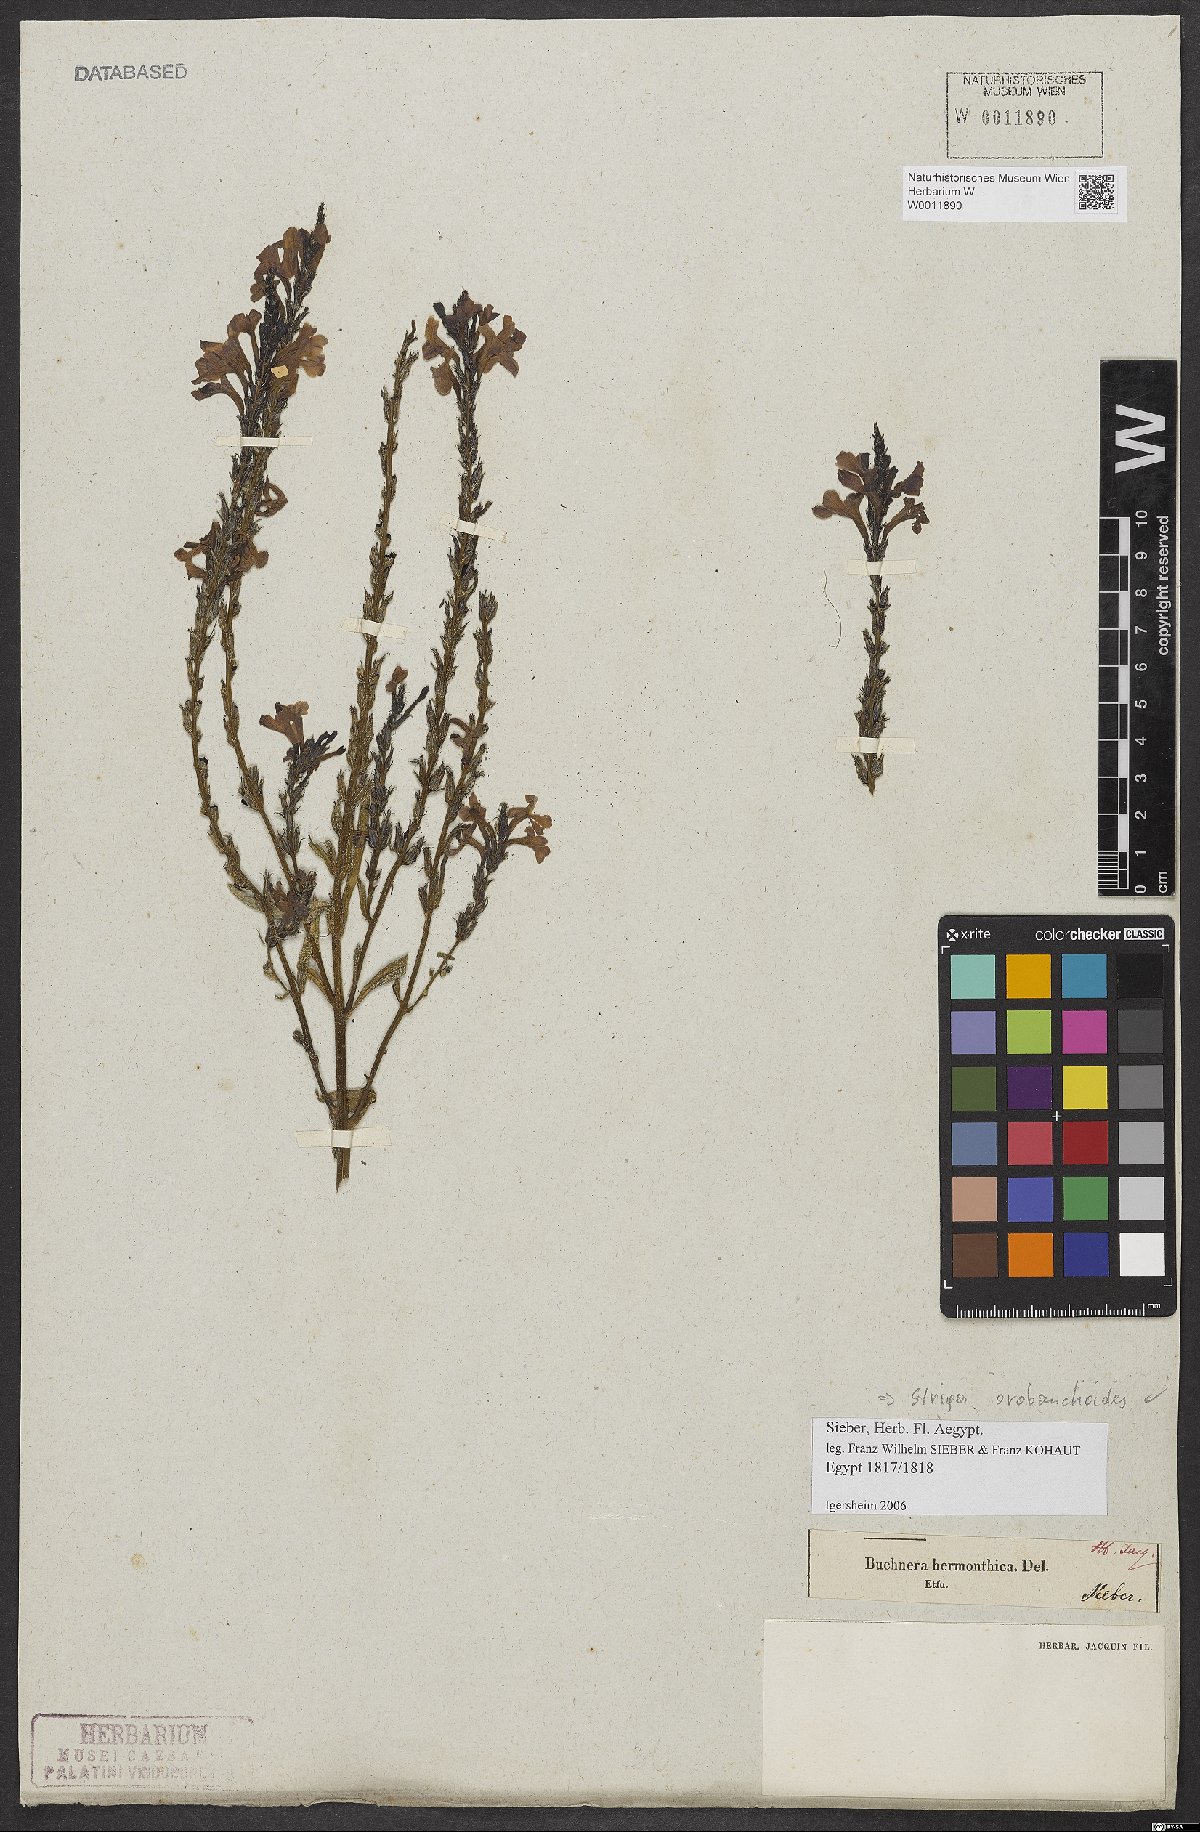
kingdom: Plantae
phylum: Tracheophyta
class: Magnoliopsida
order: Lamiales
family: Orobanchaceae
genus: Striga
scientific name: Striga barthlottii
